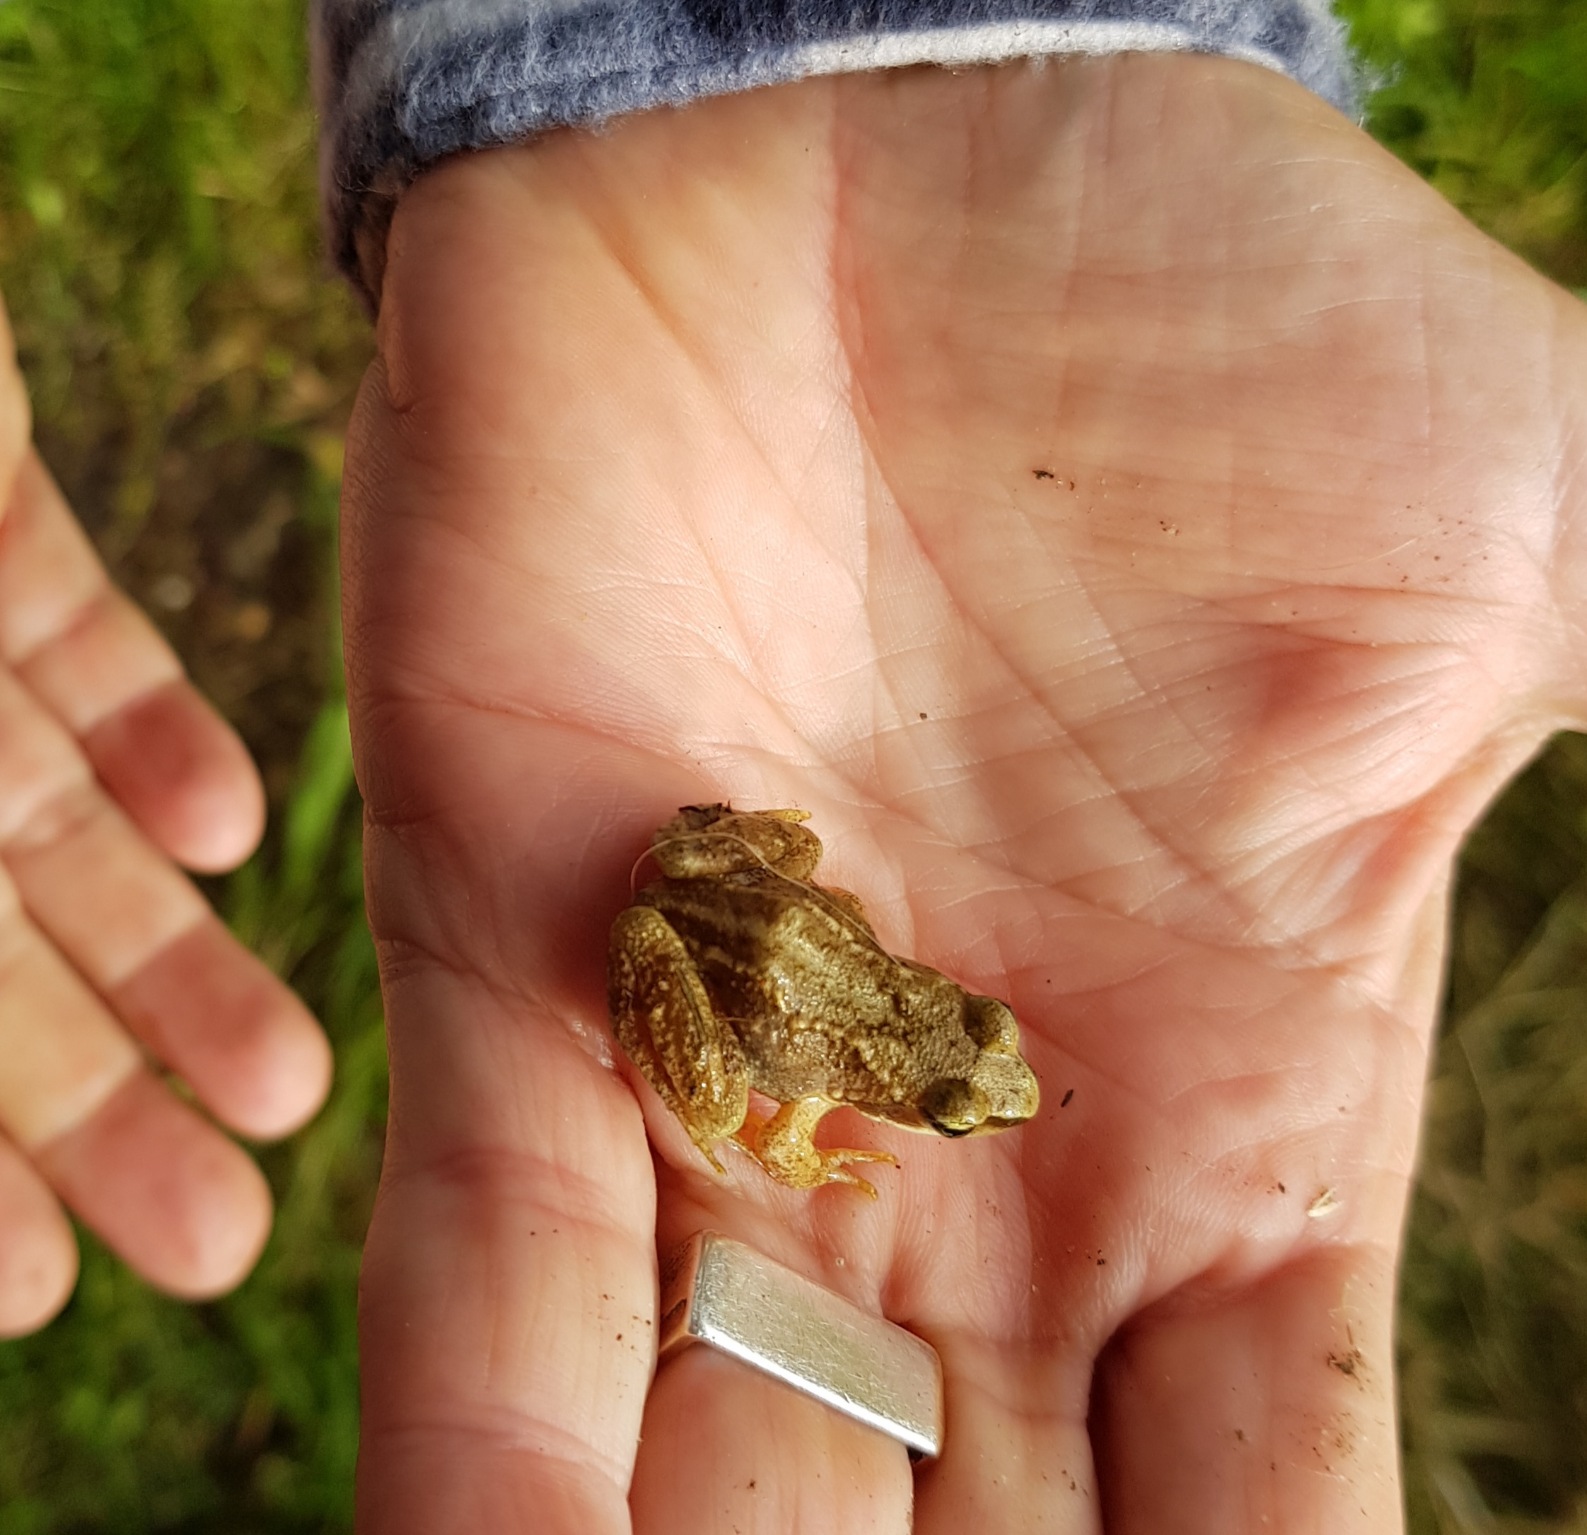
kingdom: Animalia
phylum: Chordata
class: Amphibia
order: Anura
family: Ranidae
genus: Rana
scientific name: Rana temporaria
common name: Butsnudet frø
